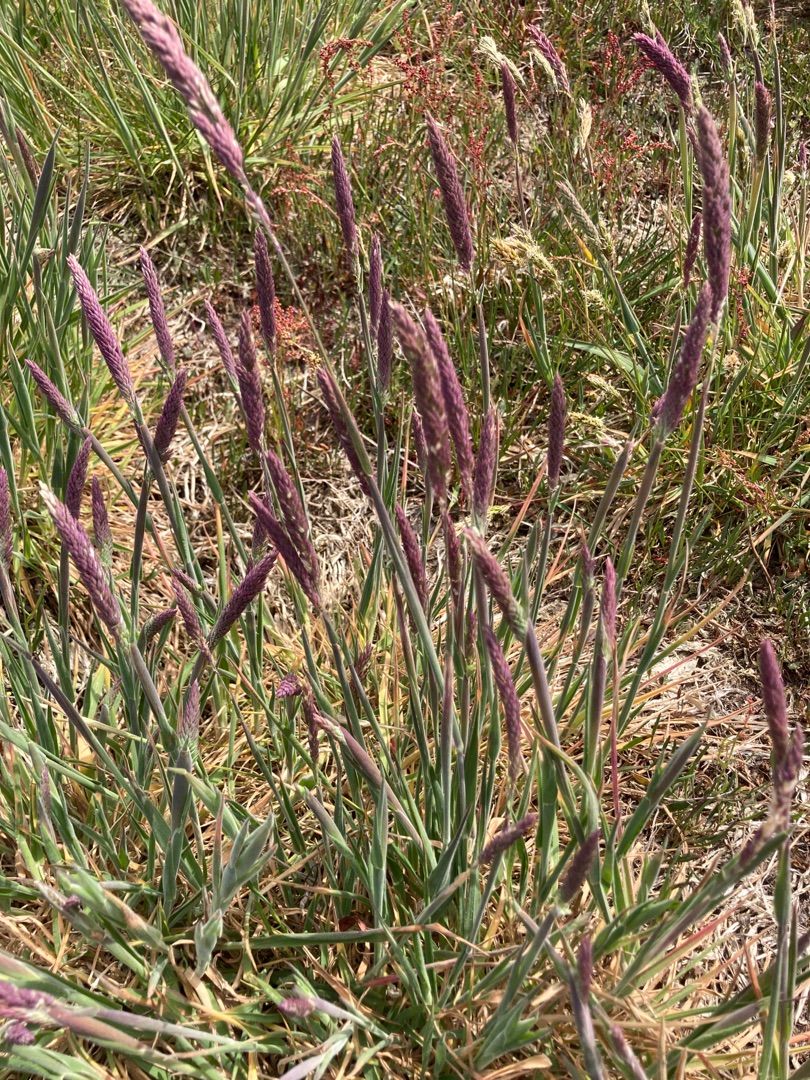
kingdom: Plantae
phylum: Tracheophyta
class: Liliopsida
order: Poales
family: Poaceae
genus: Holcus
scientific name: Holcus lanatus
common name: Fløjlsgræs
